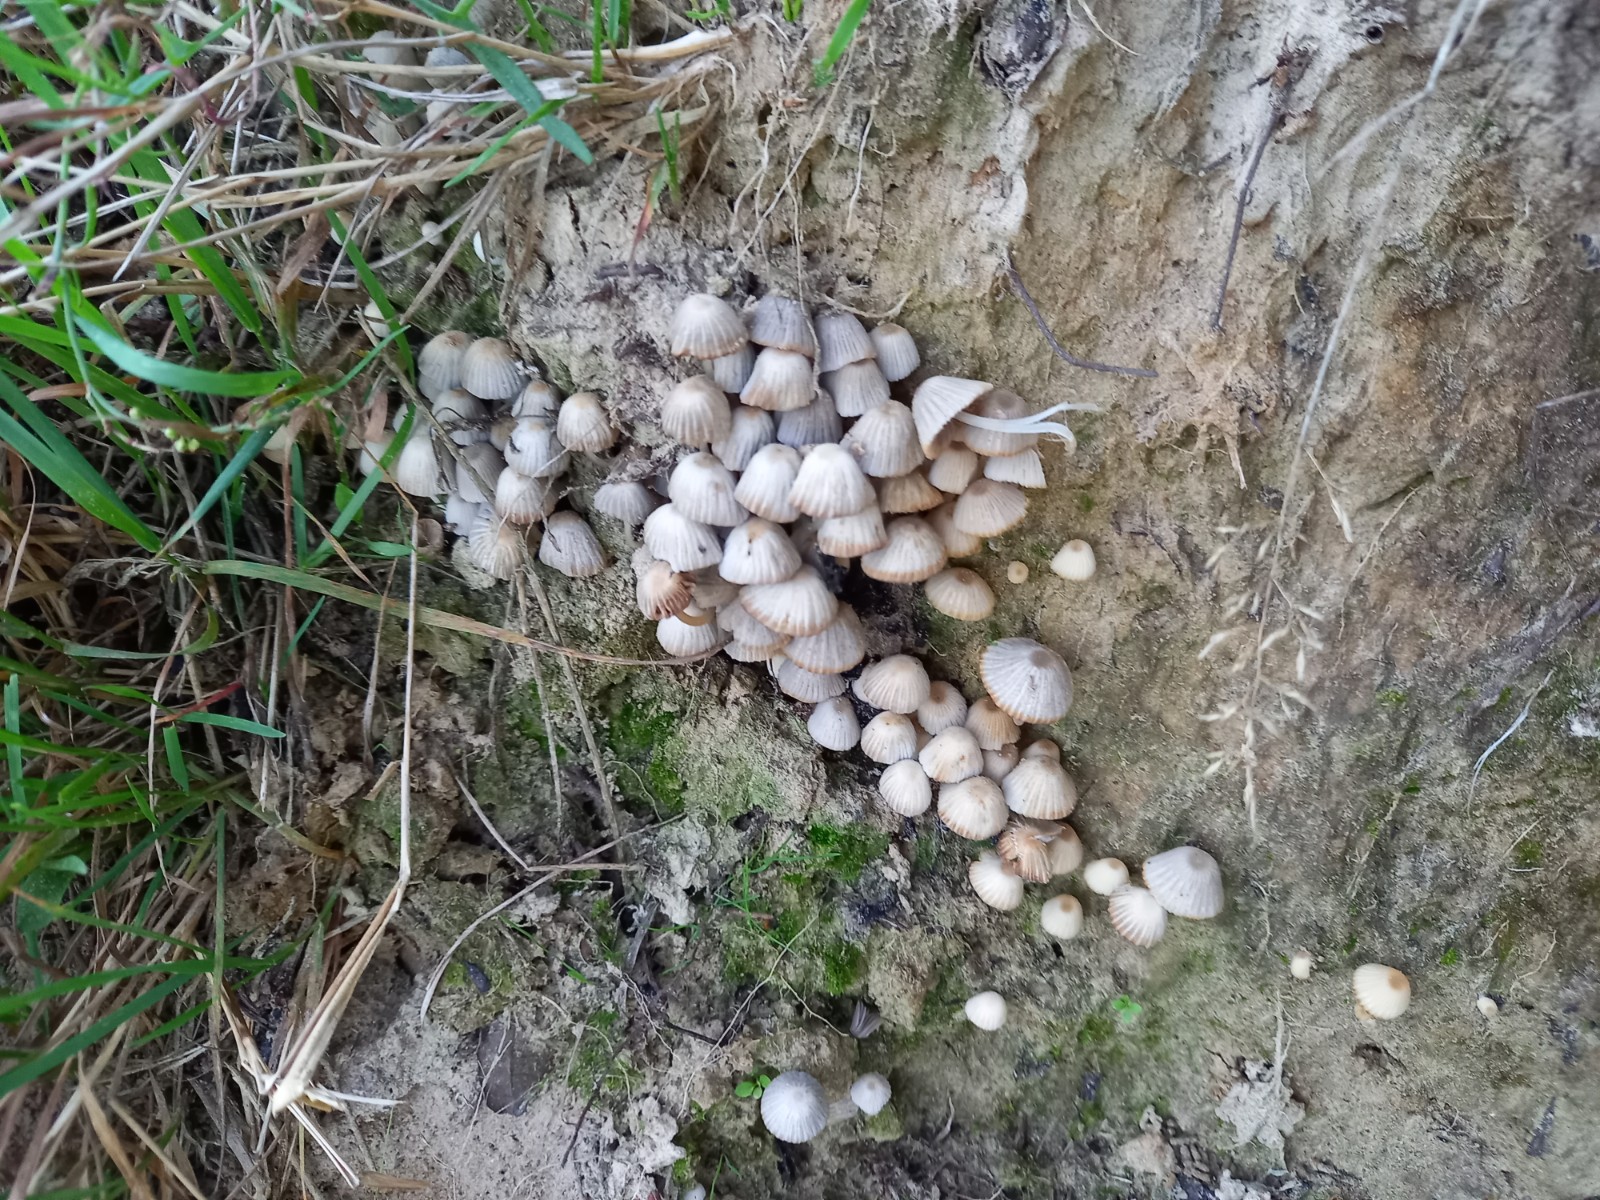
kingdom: Fungi
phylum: Basidiomycota
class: Agaricomycetes
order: Agaricales
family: Psathyrellaceae
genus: Coprinellus
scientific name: Coprinellus disseminatus
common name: bredsået blækhat
